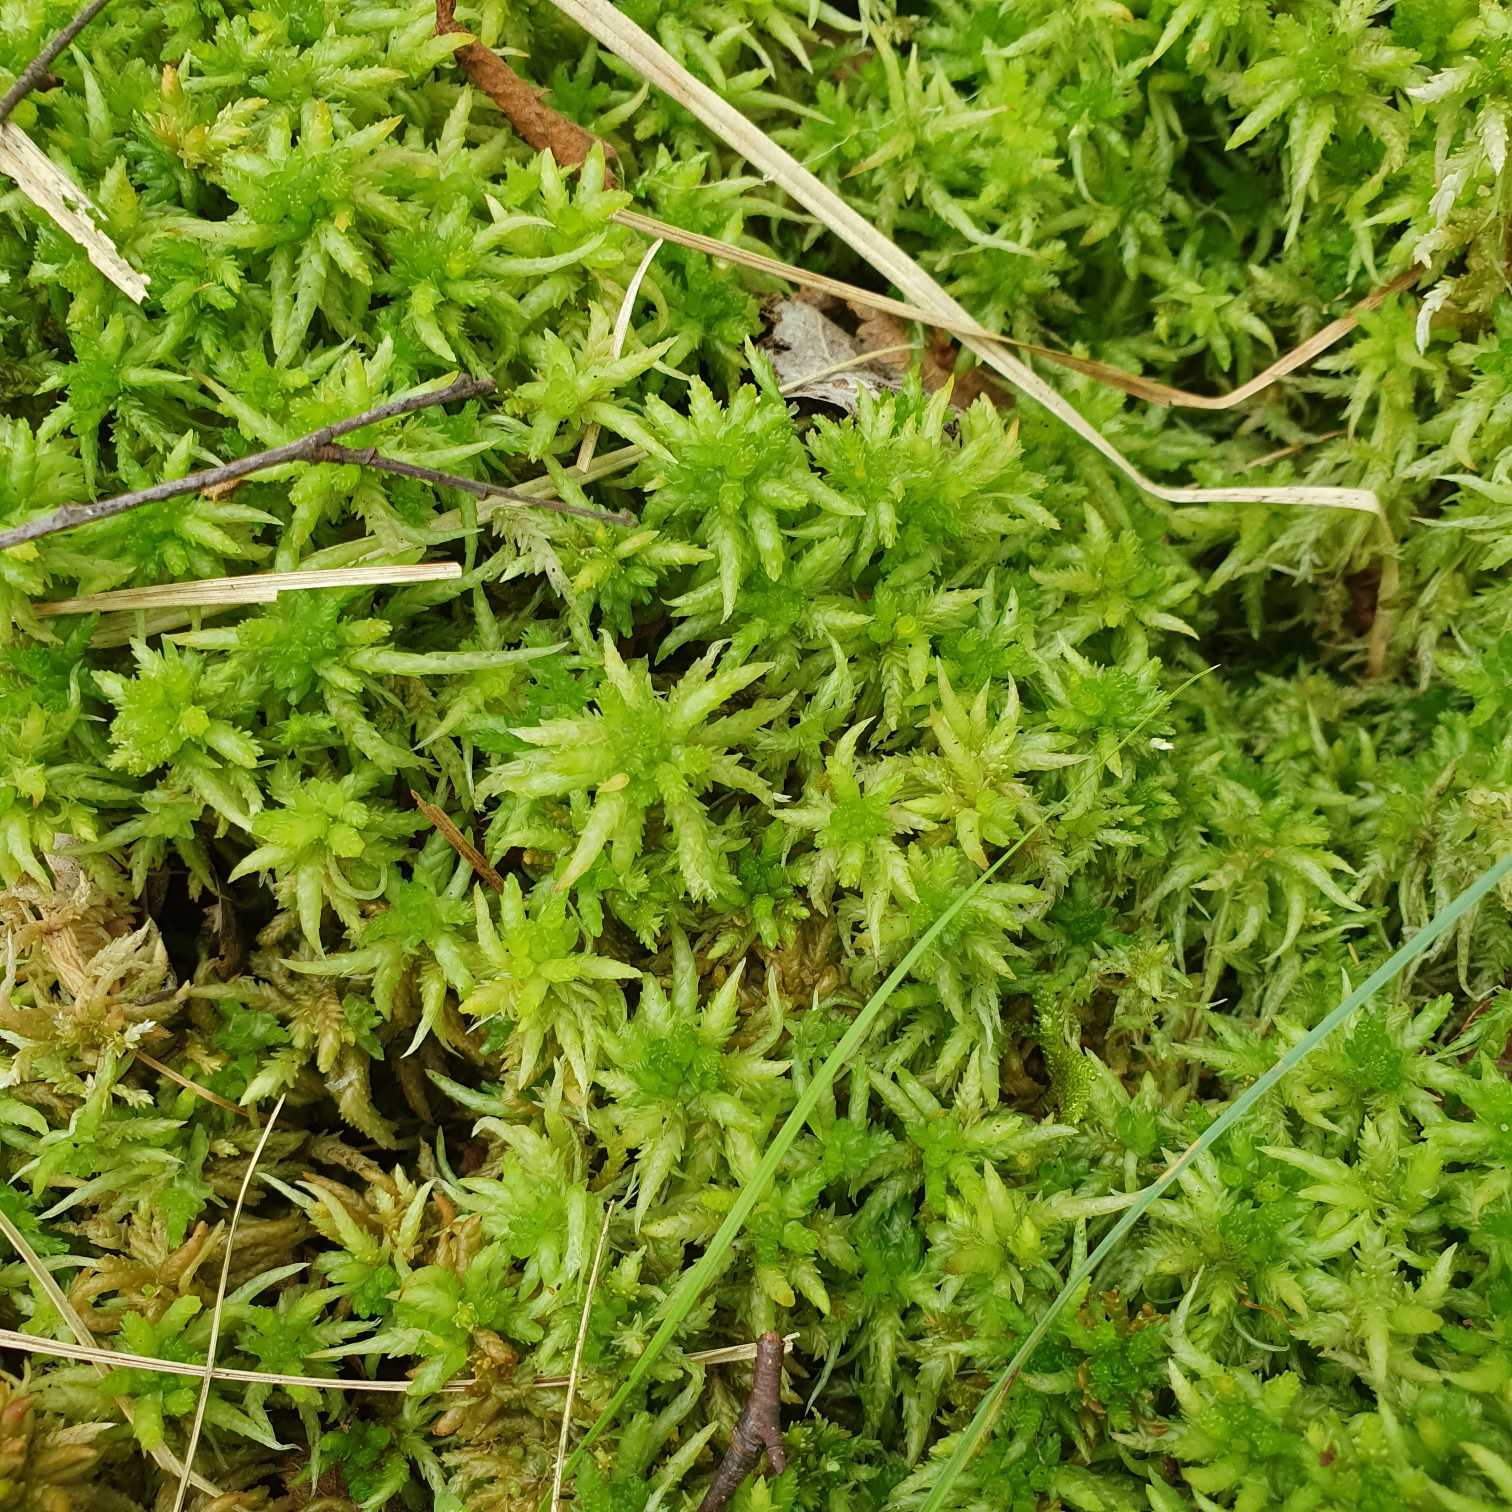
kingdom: Plantae
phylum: Bryophyta
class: Sphagnopsida
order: Sphagnales
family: Sphagnaceae
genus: Sphagnum
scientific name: Sphagnum palustre
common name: Almindelig tørvemos
